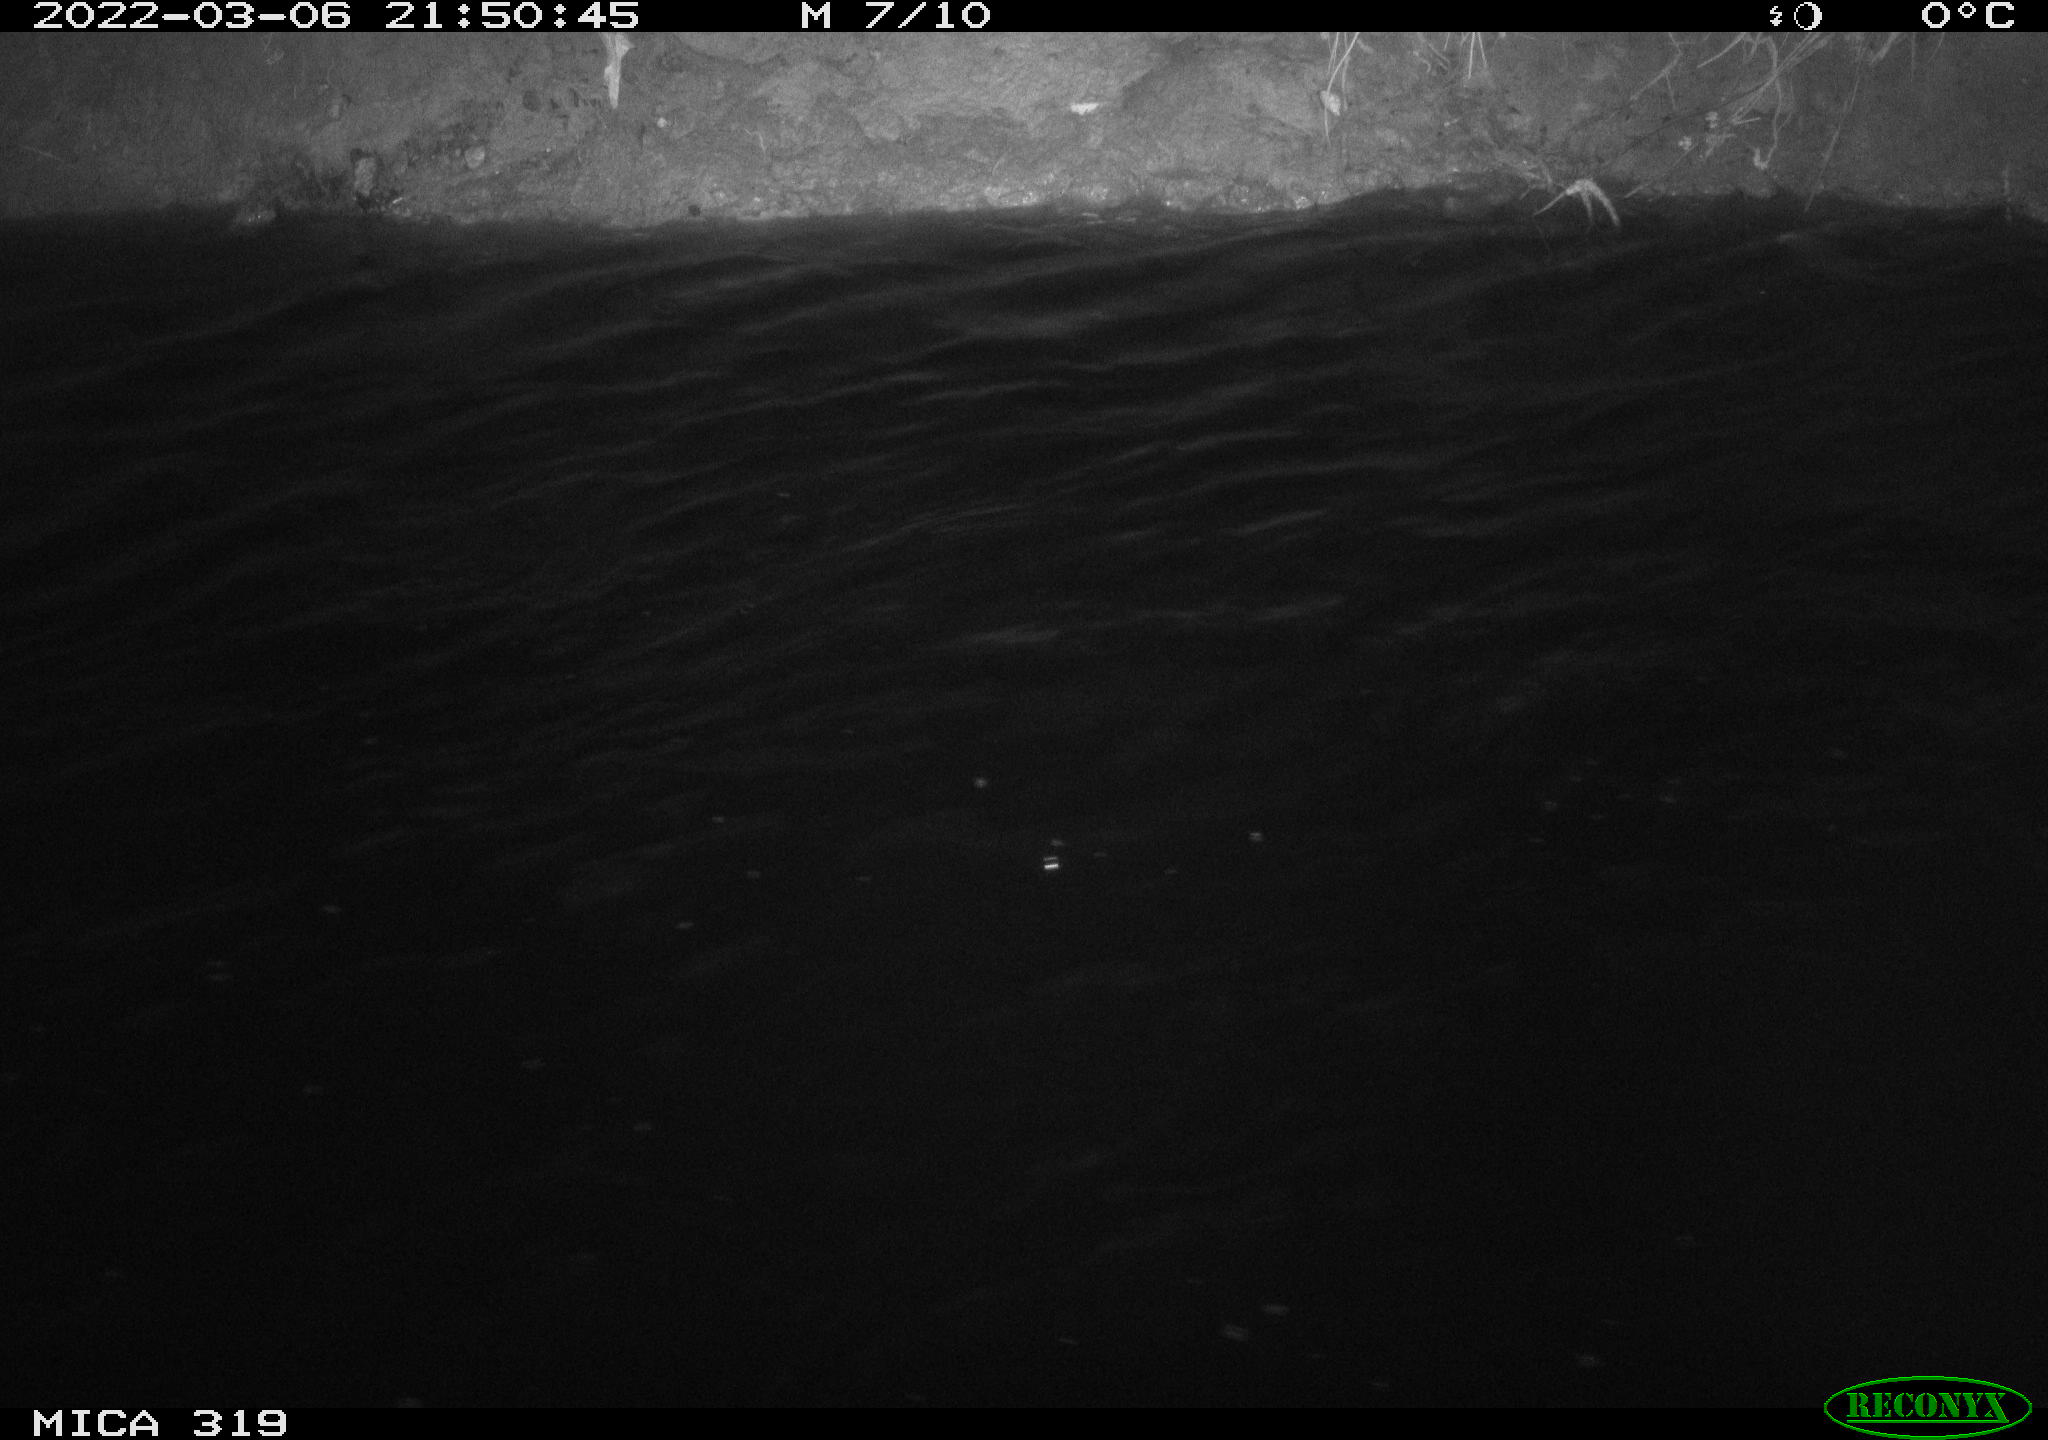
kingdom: Animalia
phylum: Chordata
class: Aves
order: Anseriformes
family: Anatidae
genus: Anas
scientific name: Anas platyrhynchos
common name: Mallard
